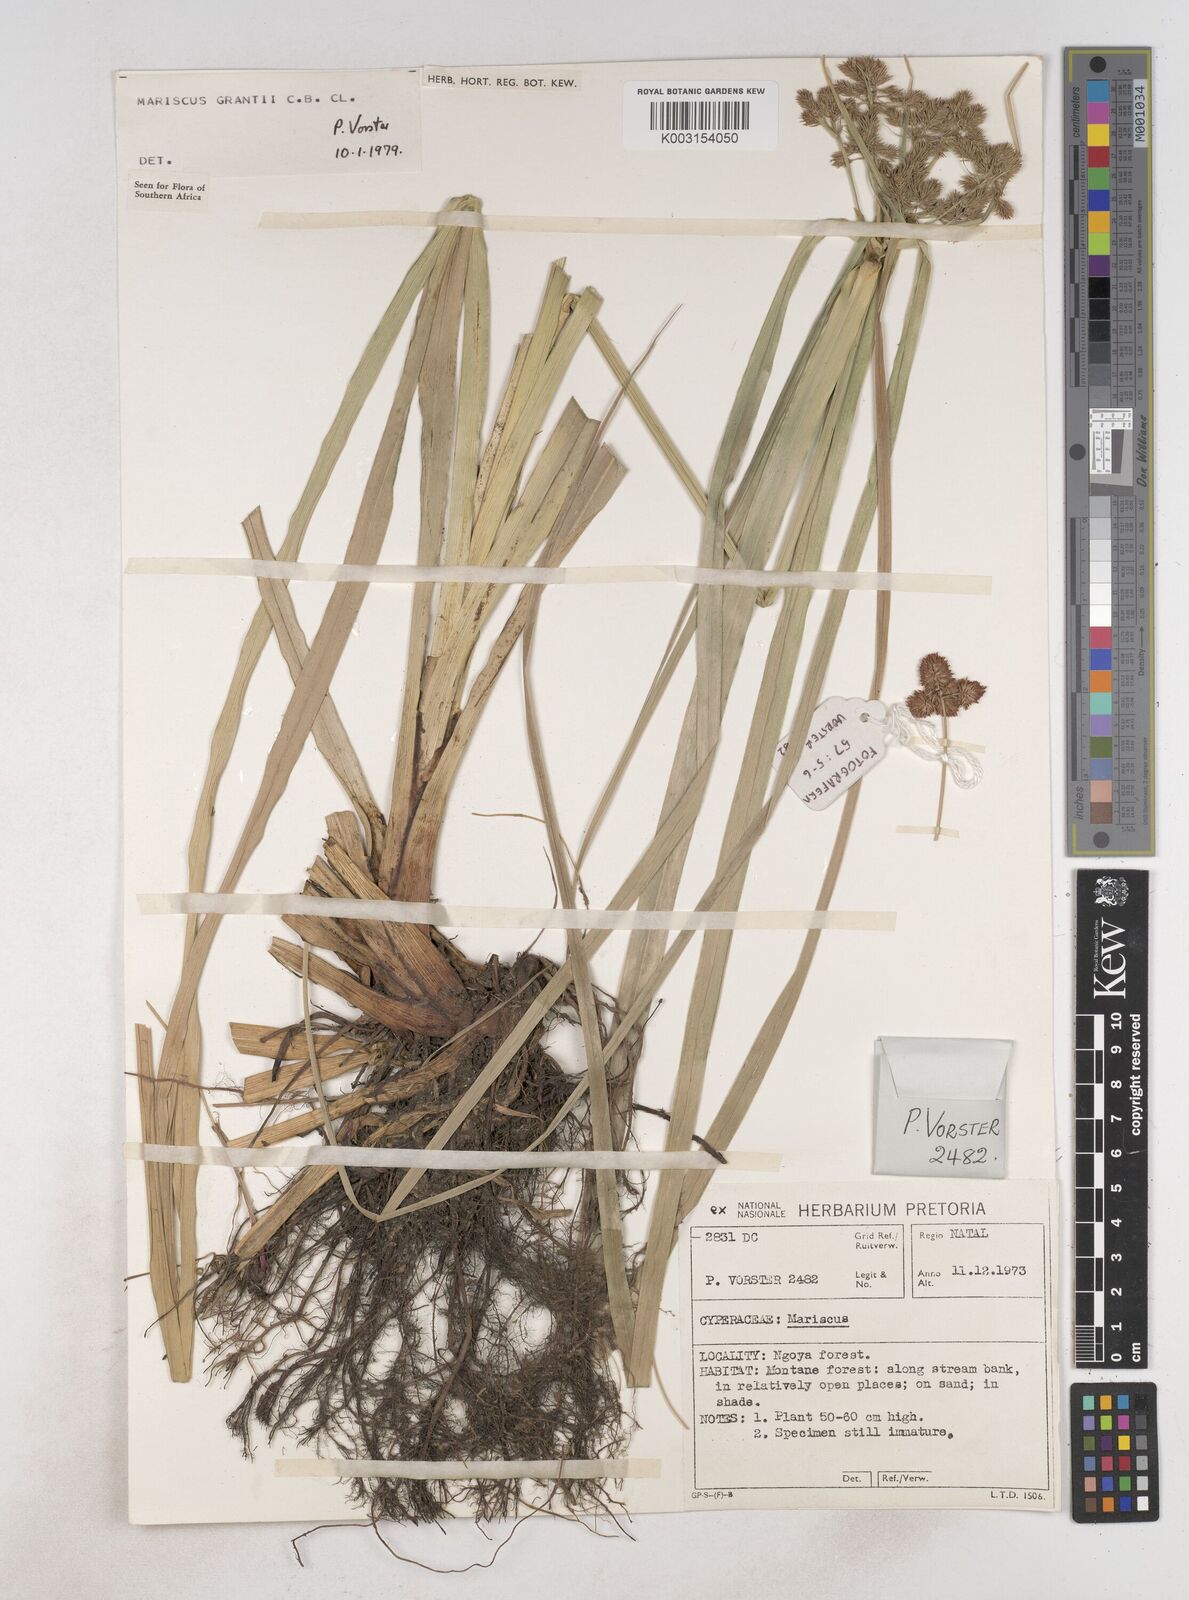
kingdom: Plantae
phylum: Tracheophyta
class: Liliopsida
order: Poales
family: Cyperaceae
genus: Cyperus
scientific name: Cyperus owanii
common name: Owan's flatsedge
